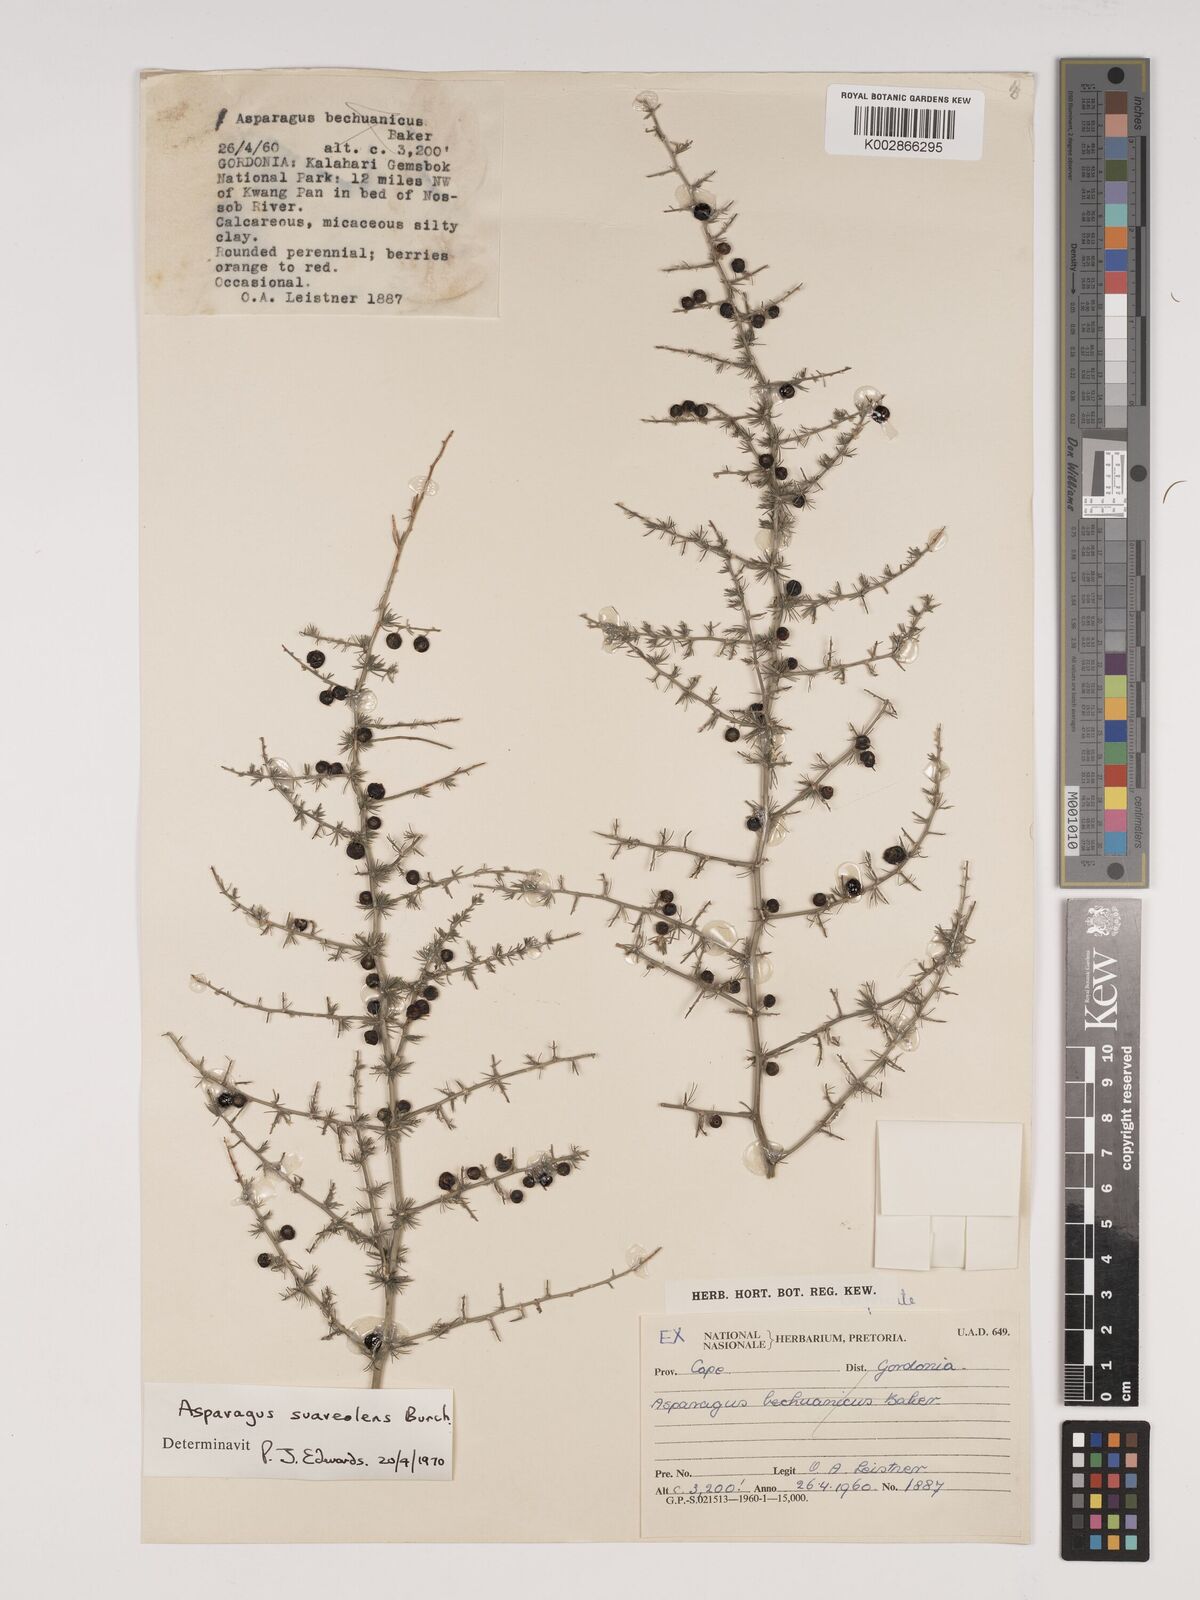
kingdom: Plantae
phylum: Tracheophyta
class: Liliopsida
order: Asparagales
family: Asparagaceae
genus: Asparagus
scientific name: Asparagus suaveolens
